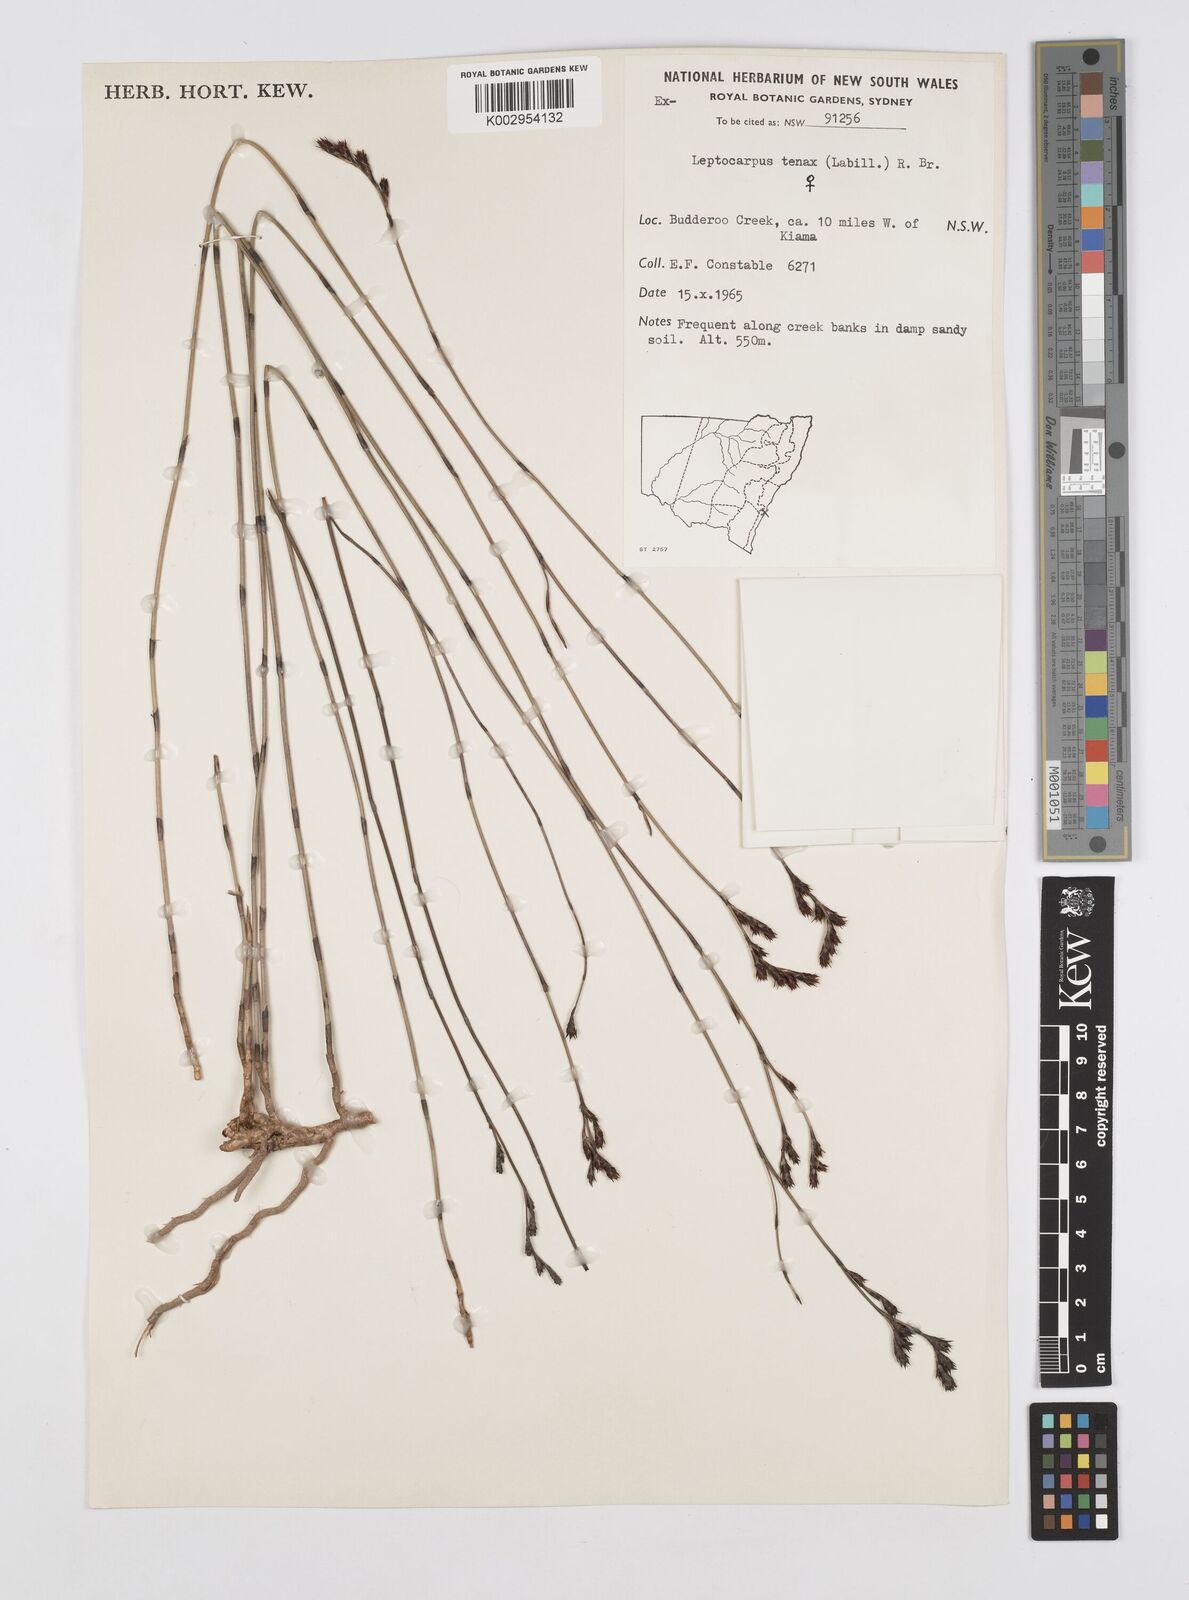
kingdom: Plantae
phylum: Tracheophyta
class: Liliopsida
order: Poales
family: Restionaceae
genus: Leptocarpus
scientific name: Leptocarpus tenax
